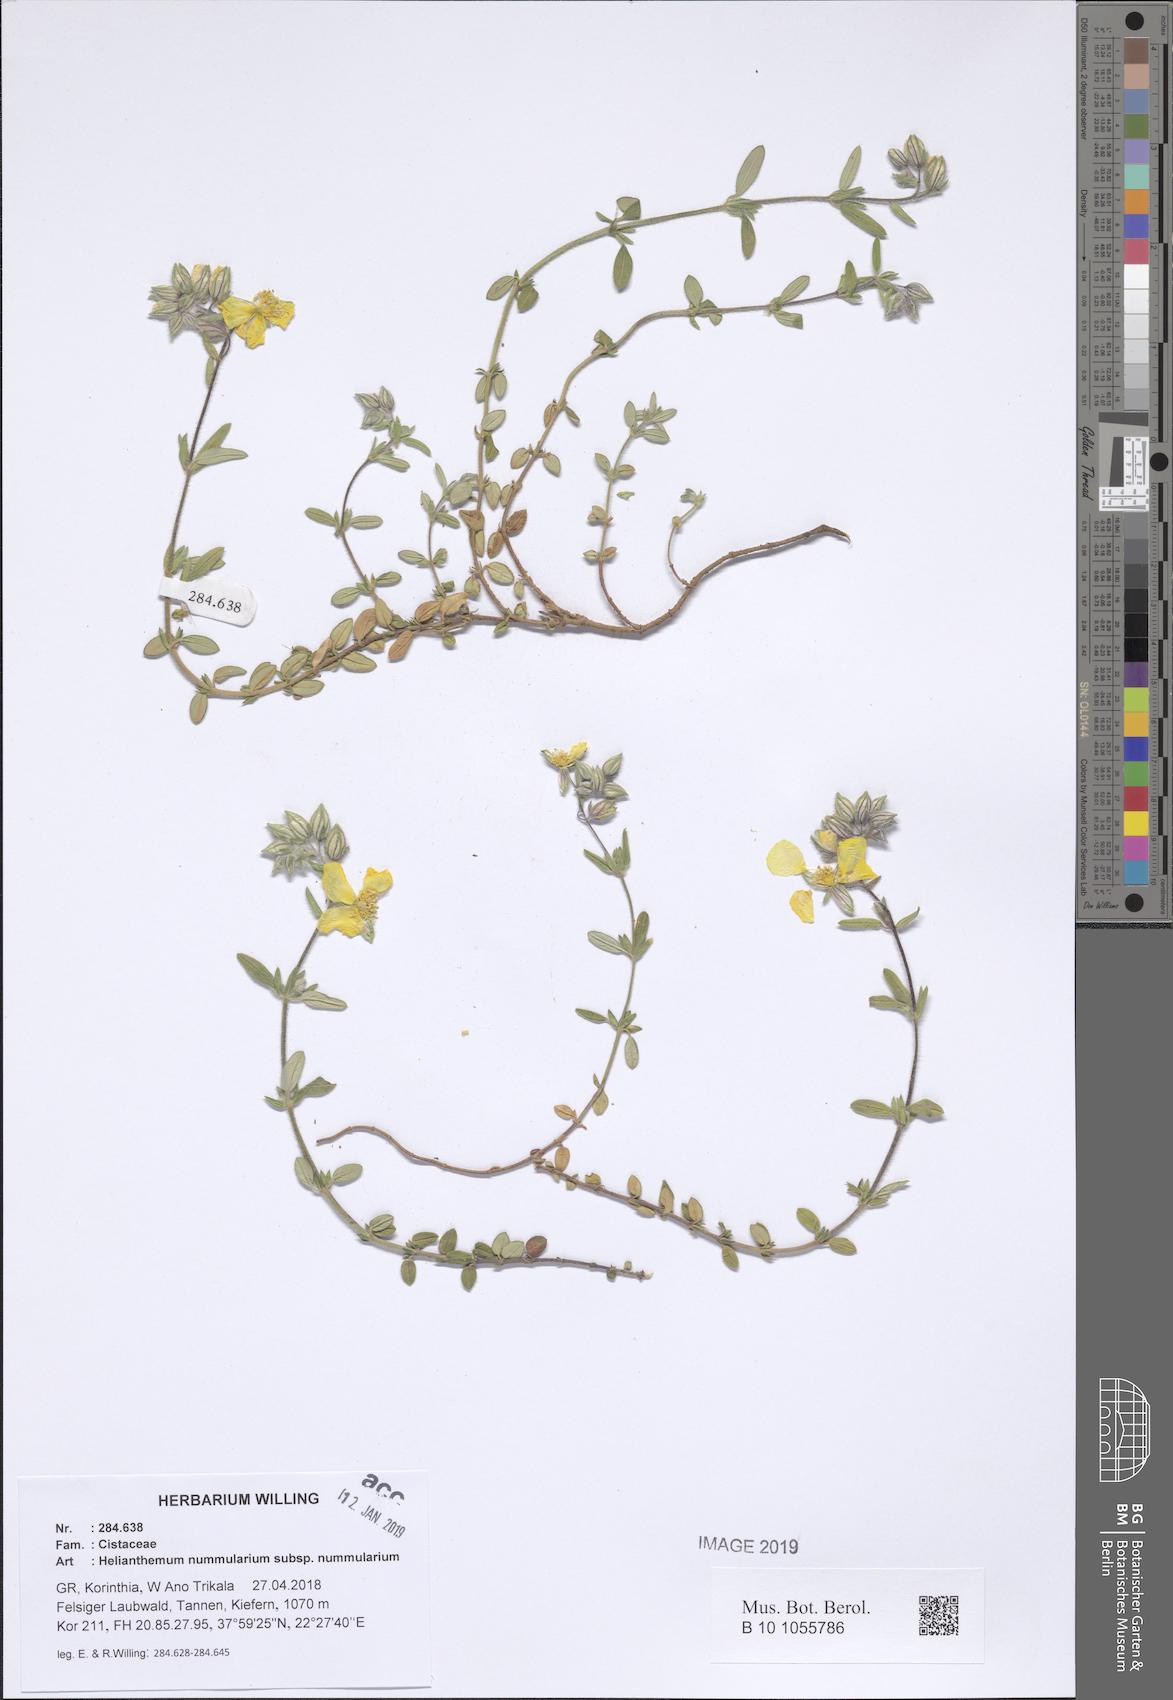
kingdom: Plantae
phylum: Tracheophyta
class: Magnoliopsida
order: Malvales
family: Cistaceae
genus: Helianthemum
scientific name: Helianthemum nummularium
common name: Common rock-rose
